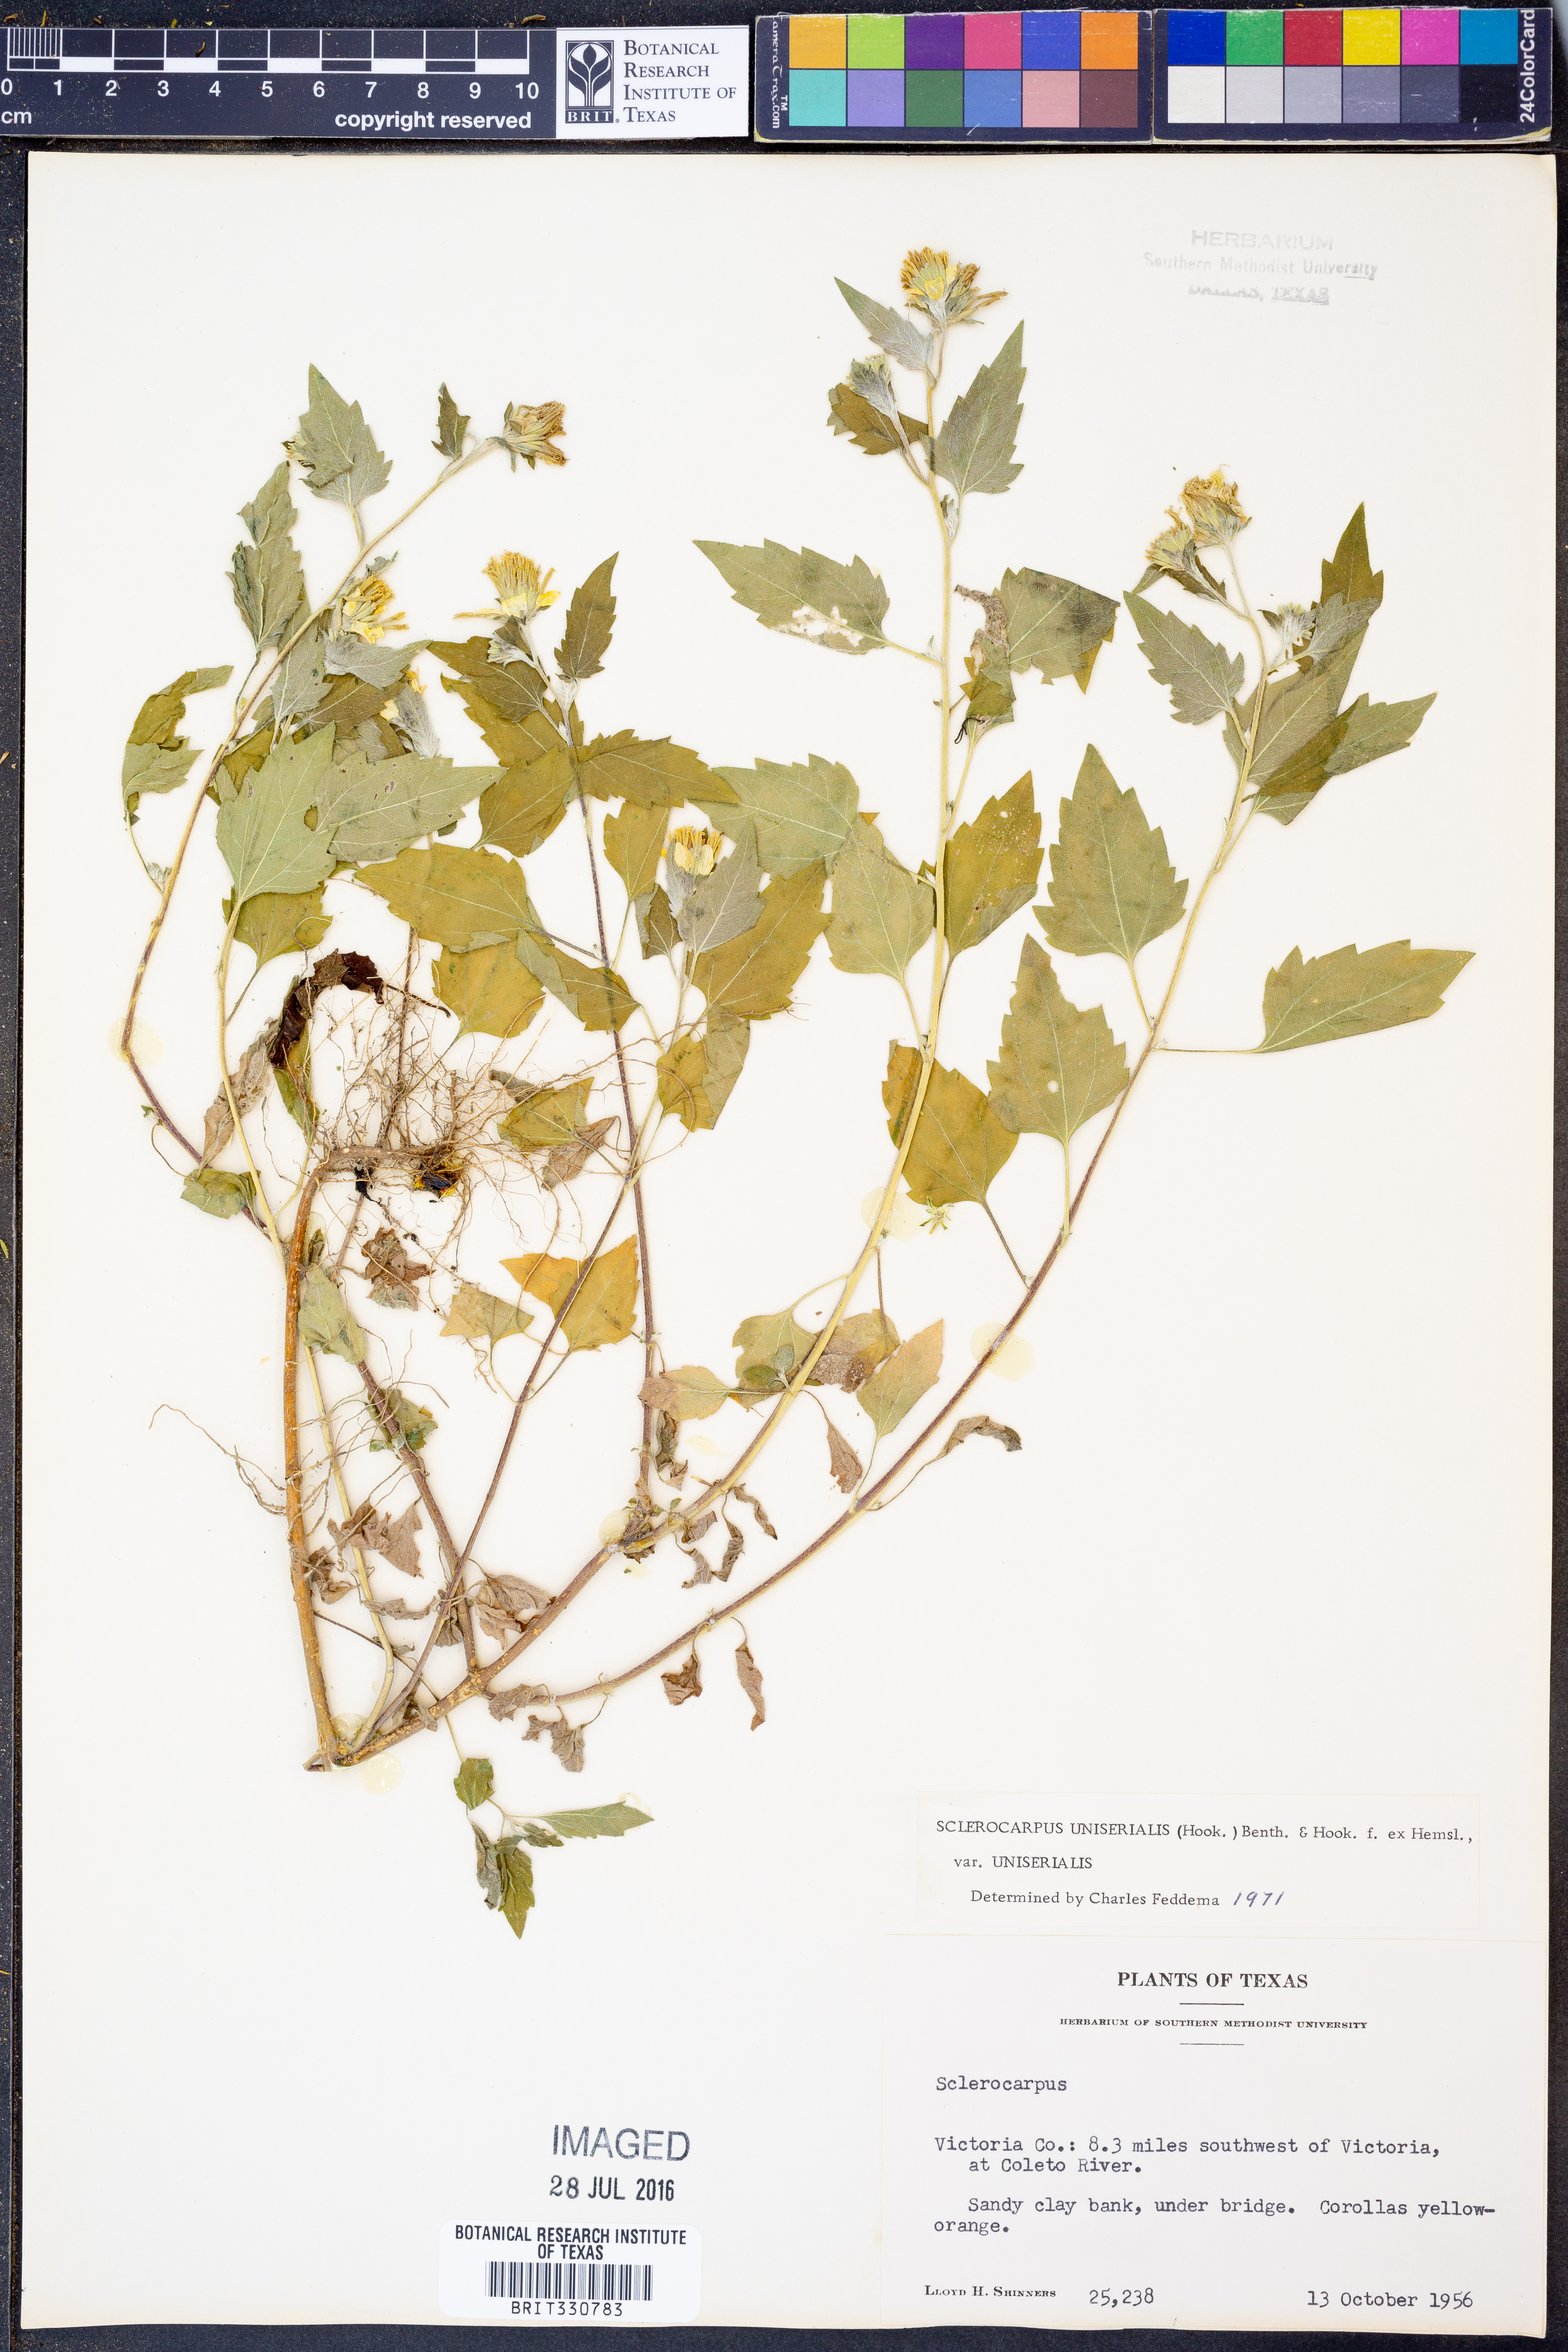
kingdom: Plantae
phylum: Tracheophyta
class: Magnoliopsida
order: Asterales
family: Asteraceae
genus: Sclerocarpus
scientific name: Sclerocarpus uniserialis
